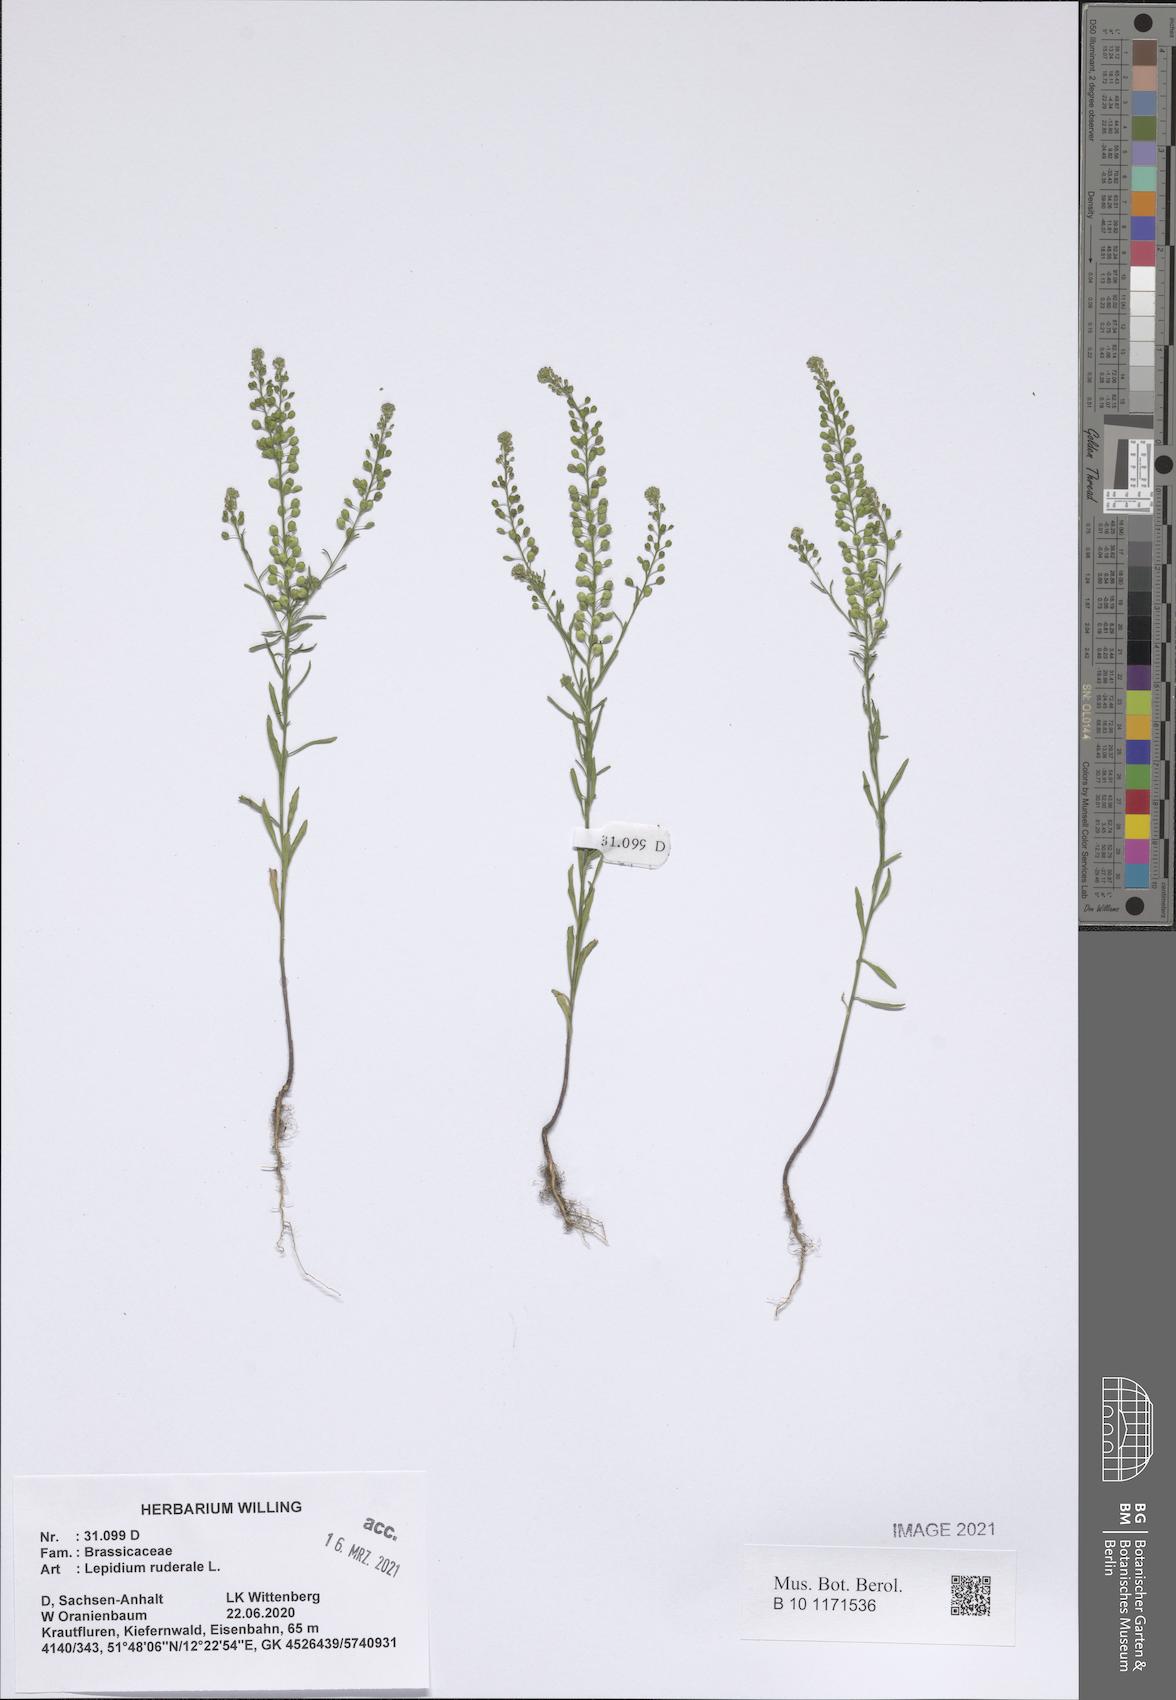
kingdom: Plantae
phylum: Tracheophyta
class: Magnoliopsida
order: Brassicales
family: Brassicaceae
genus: Lepidium
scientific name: Lepidium ruderale
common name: Narrow-leaved pepperwort
